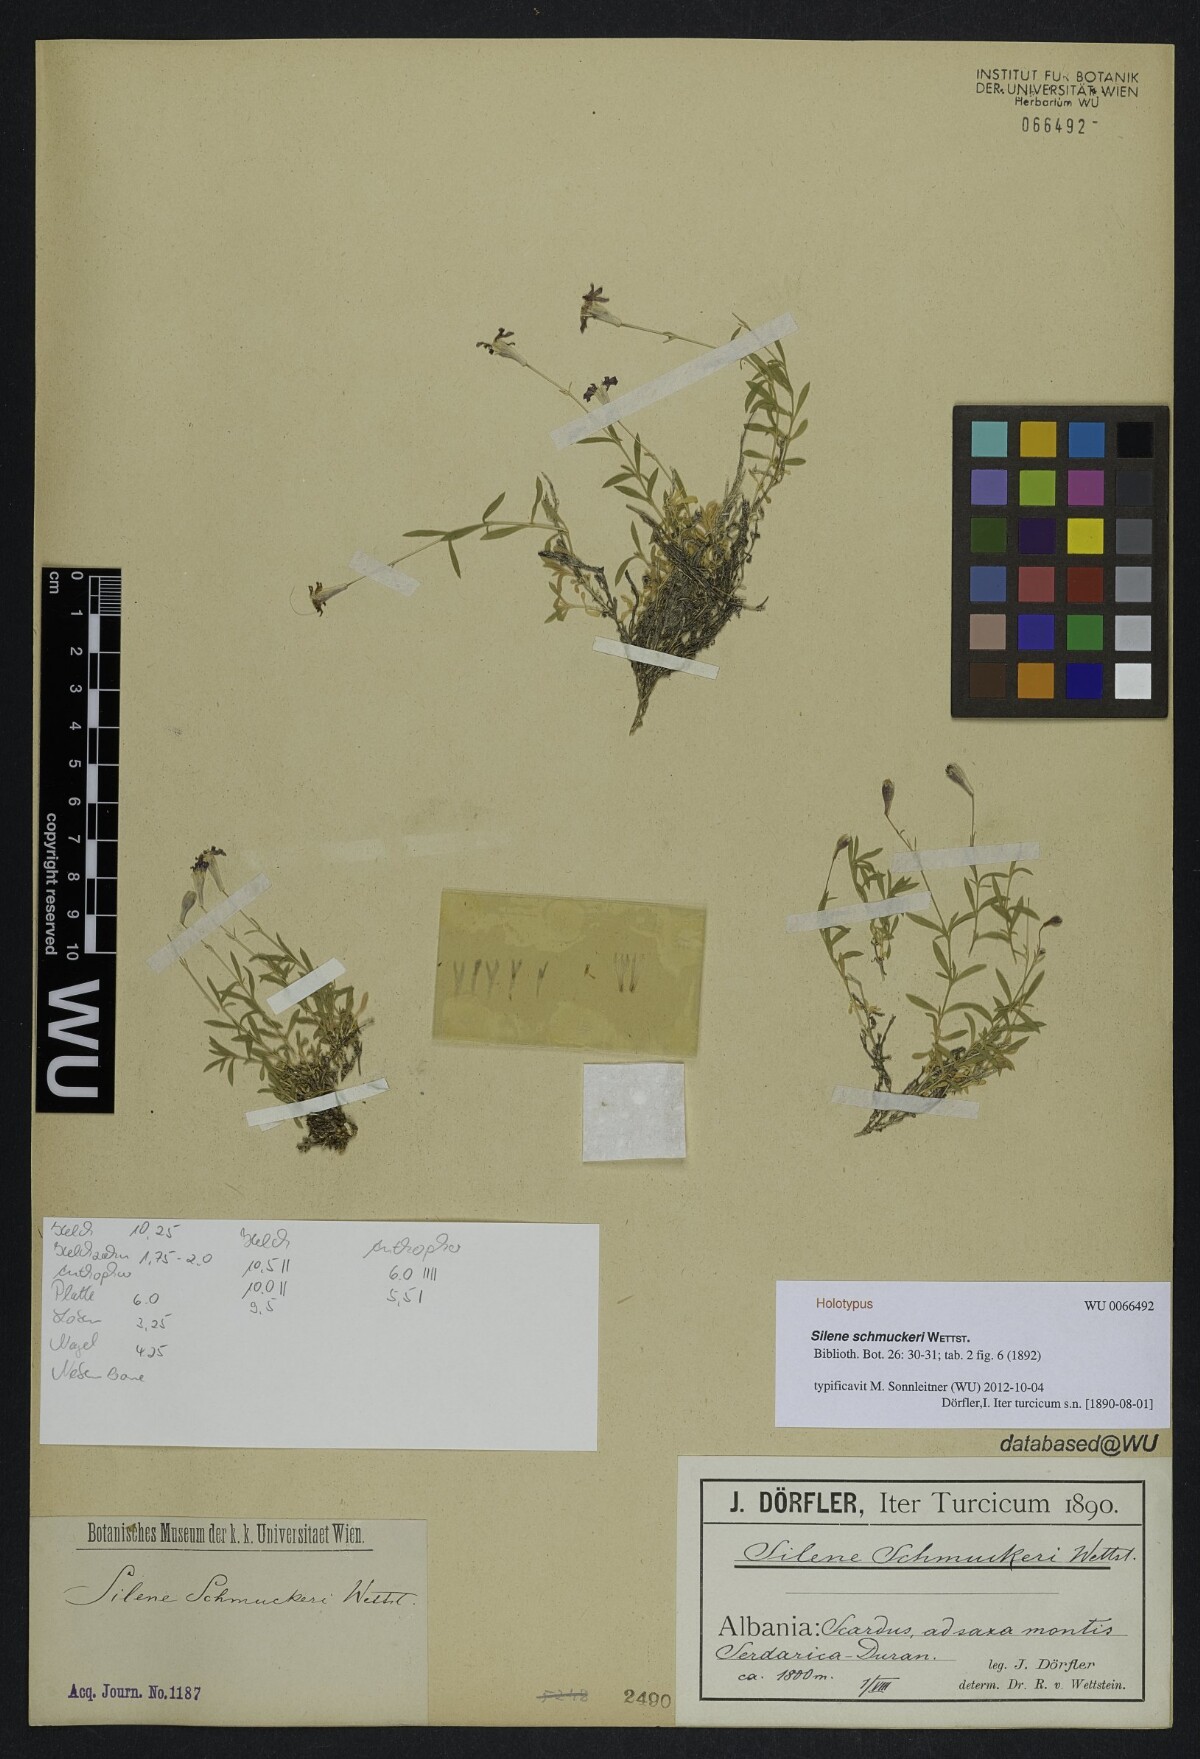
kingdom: Plantae
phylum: Tracheophyta
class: Magnoliopsida
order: Caryophyllales
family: Caryophyllaceae
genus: Silene
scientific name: Silene schmuckeri
